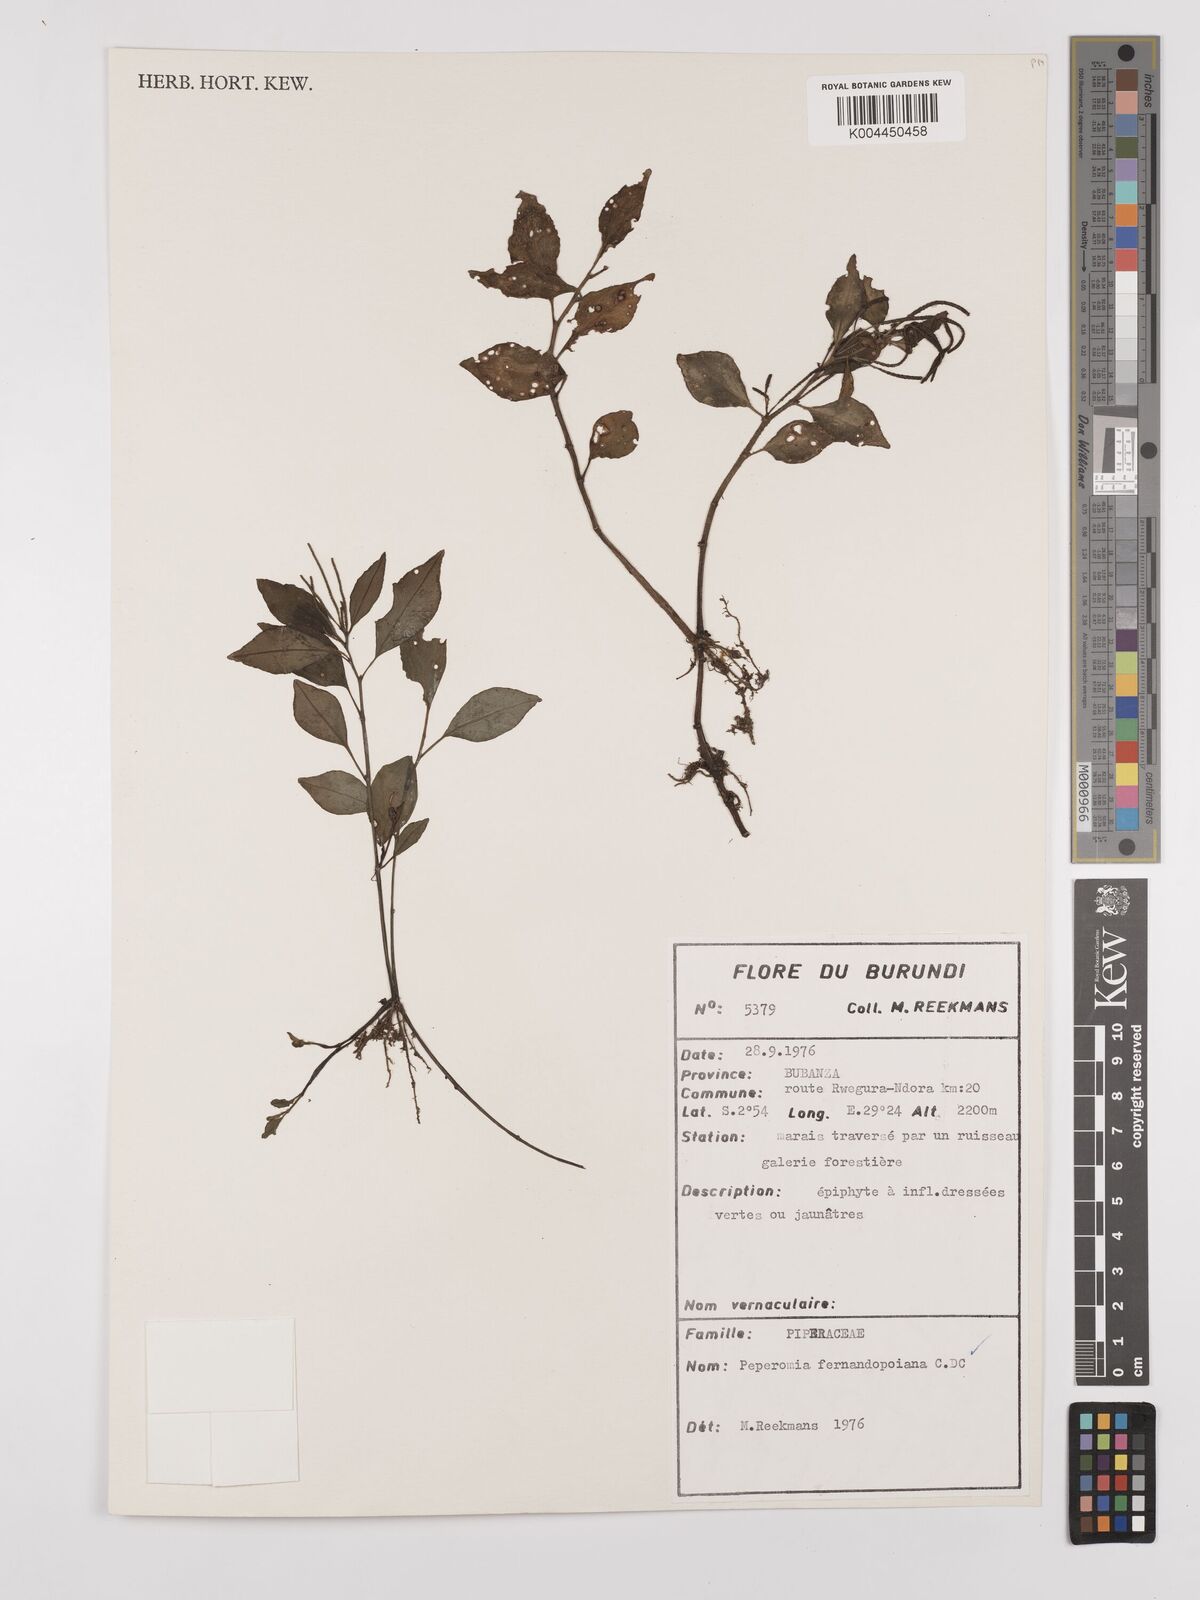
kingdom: Plantae
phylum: Tracheophyta
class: Magnoliopsida
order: Piperales
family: Piperaceae
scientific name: Piperaceae
